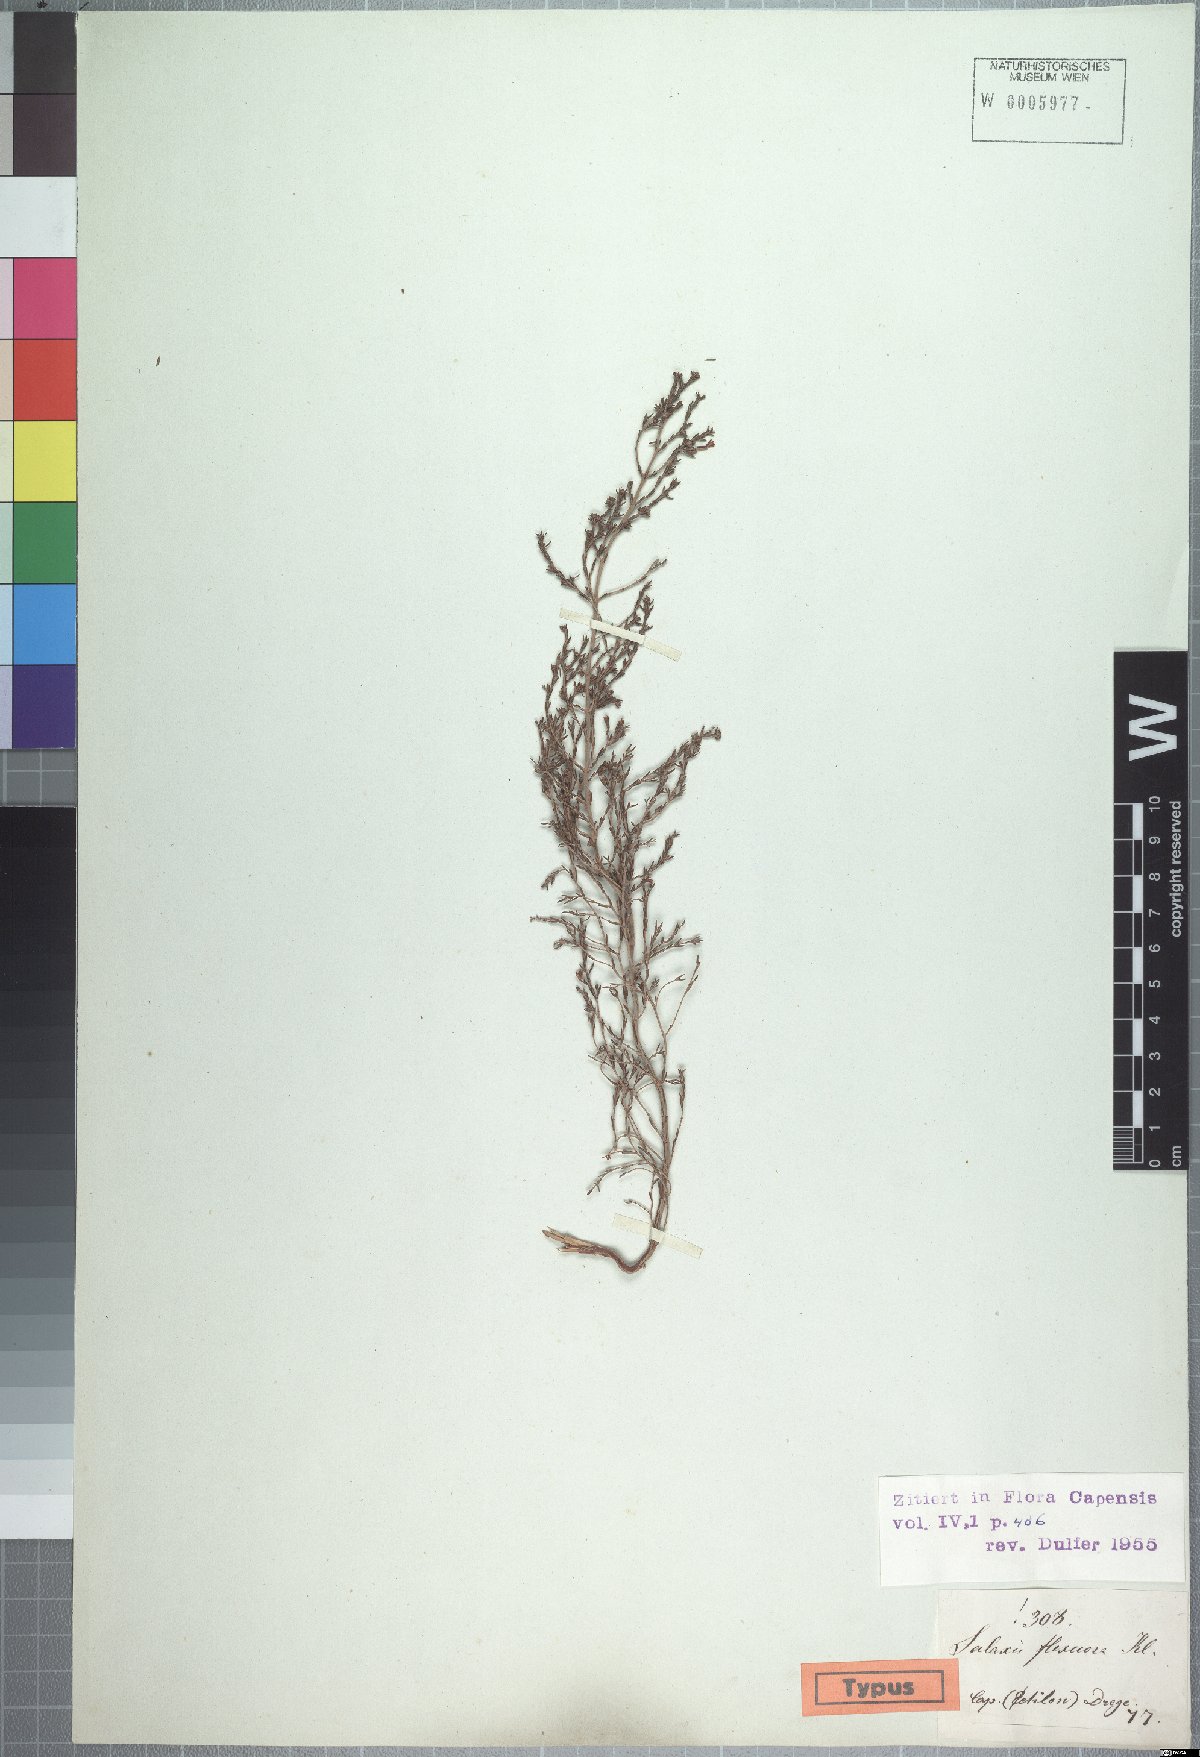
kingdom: Plantae
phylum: Tracheophyta
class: Magnoliopsida
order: Ericales
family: Ericaceae
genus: Erica
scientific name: Erica axillaris
